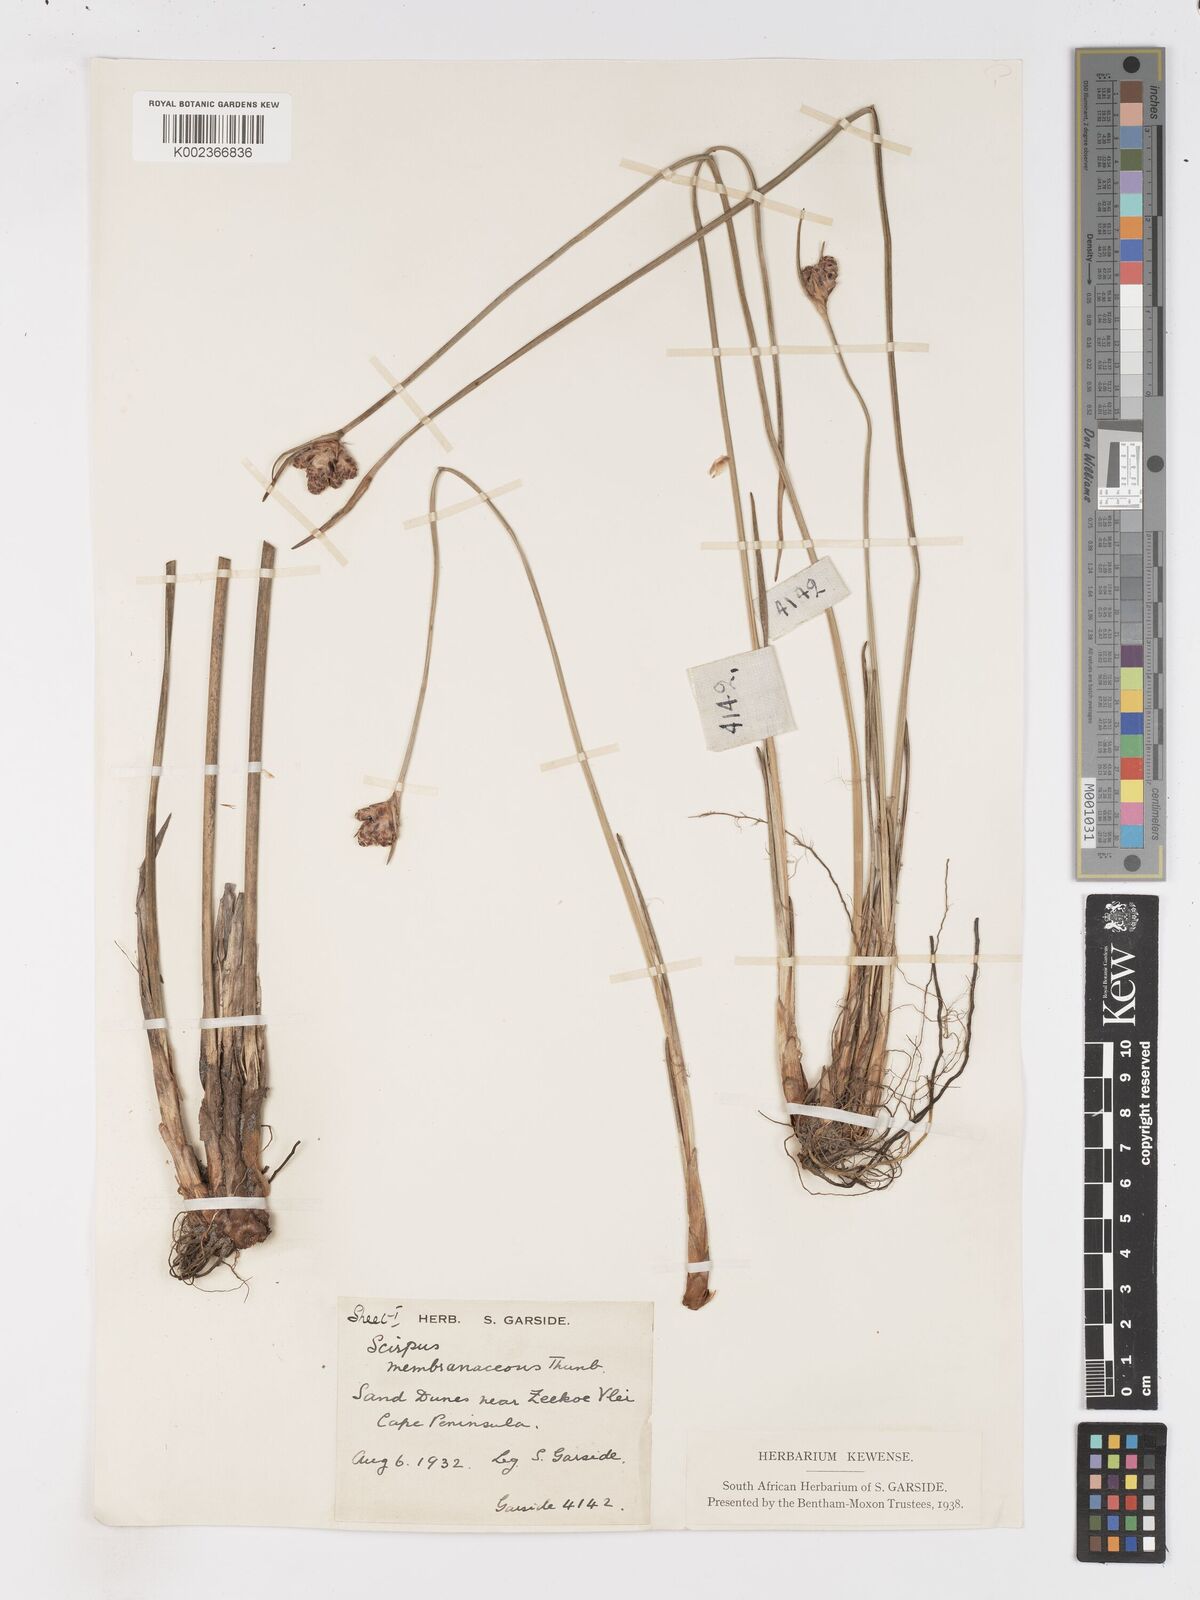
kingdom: Plantae
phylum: Tracheophyta
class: Liliopsida
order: Poales
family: Cyperaceae
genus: Hellmuthia
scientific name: Hellmuthia membranacea
